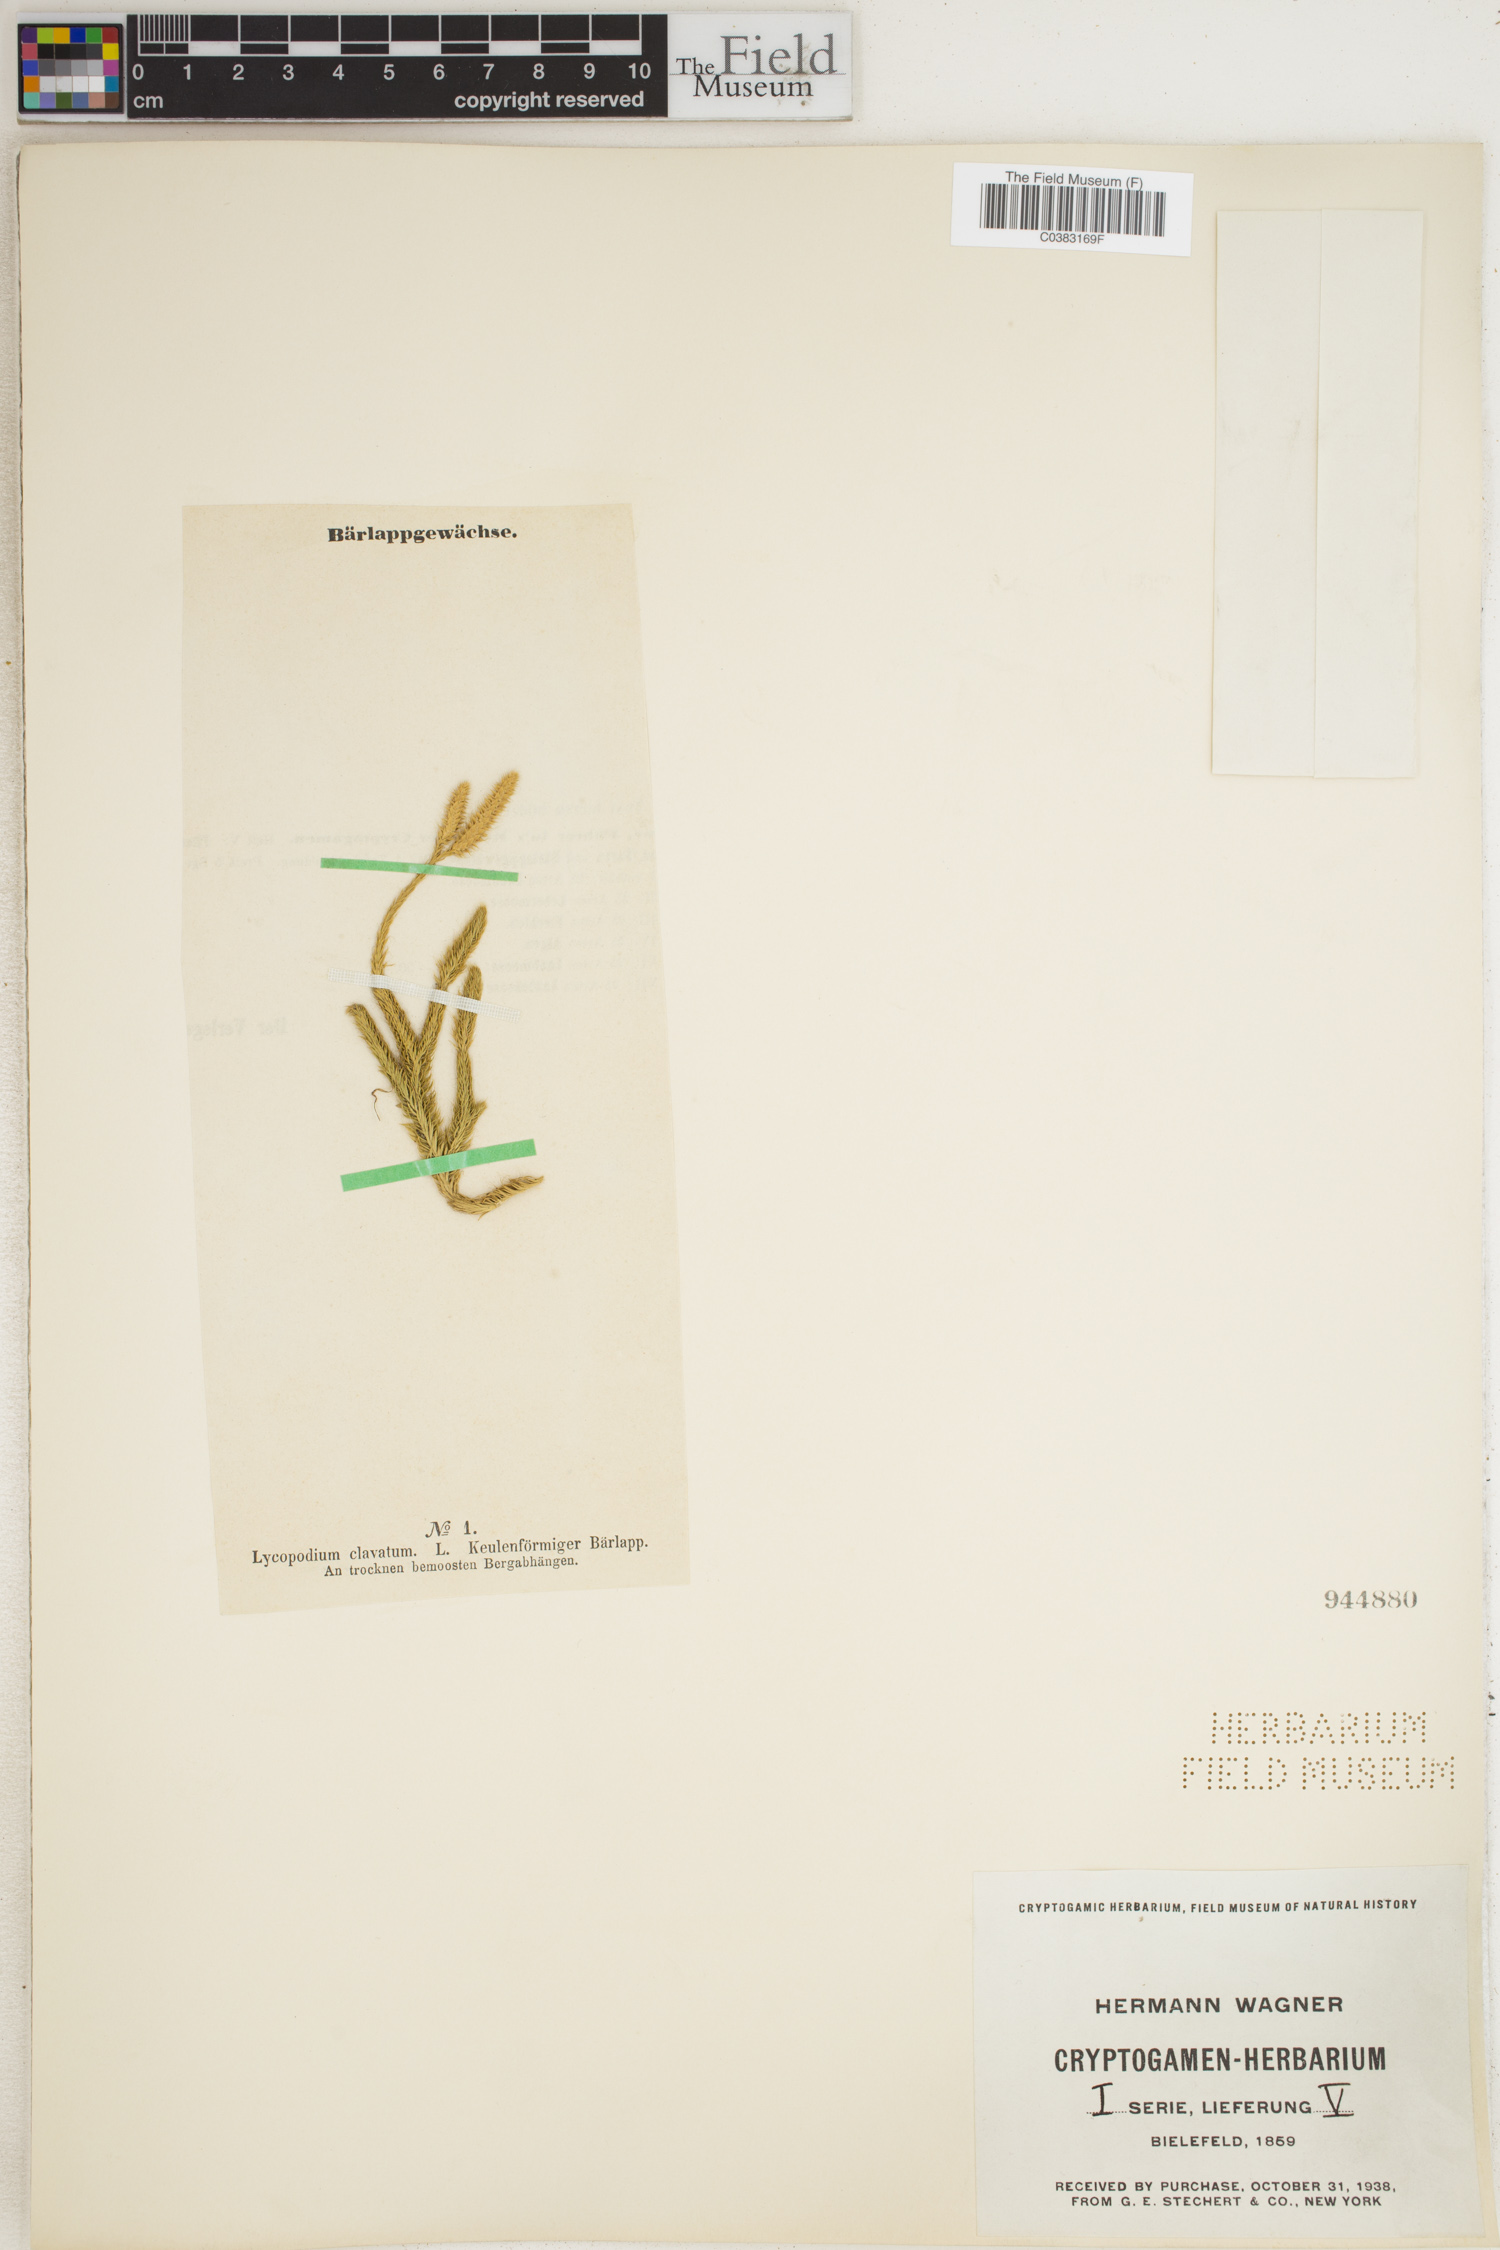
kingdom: Plantae
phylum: Tracheophyta
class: Lycopodiopsida
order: Lycopodiales
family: Lycopodiaceae
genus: Lycopodium
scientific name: Lycopodium clavatum
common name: Stag's-horn clubmoss
